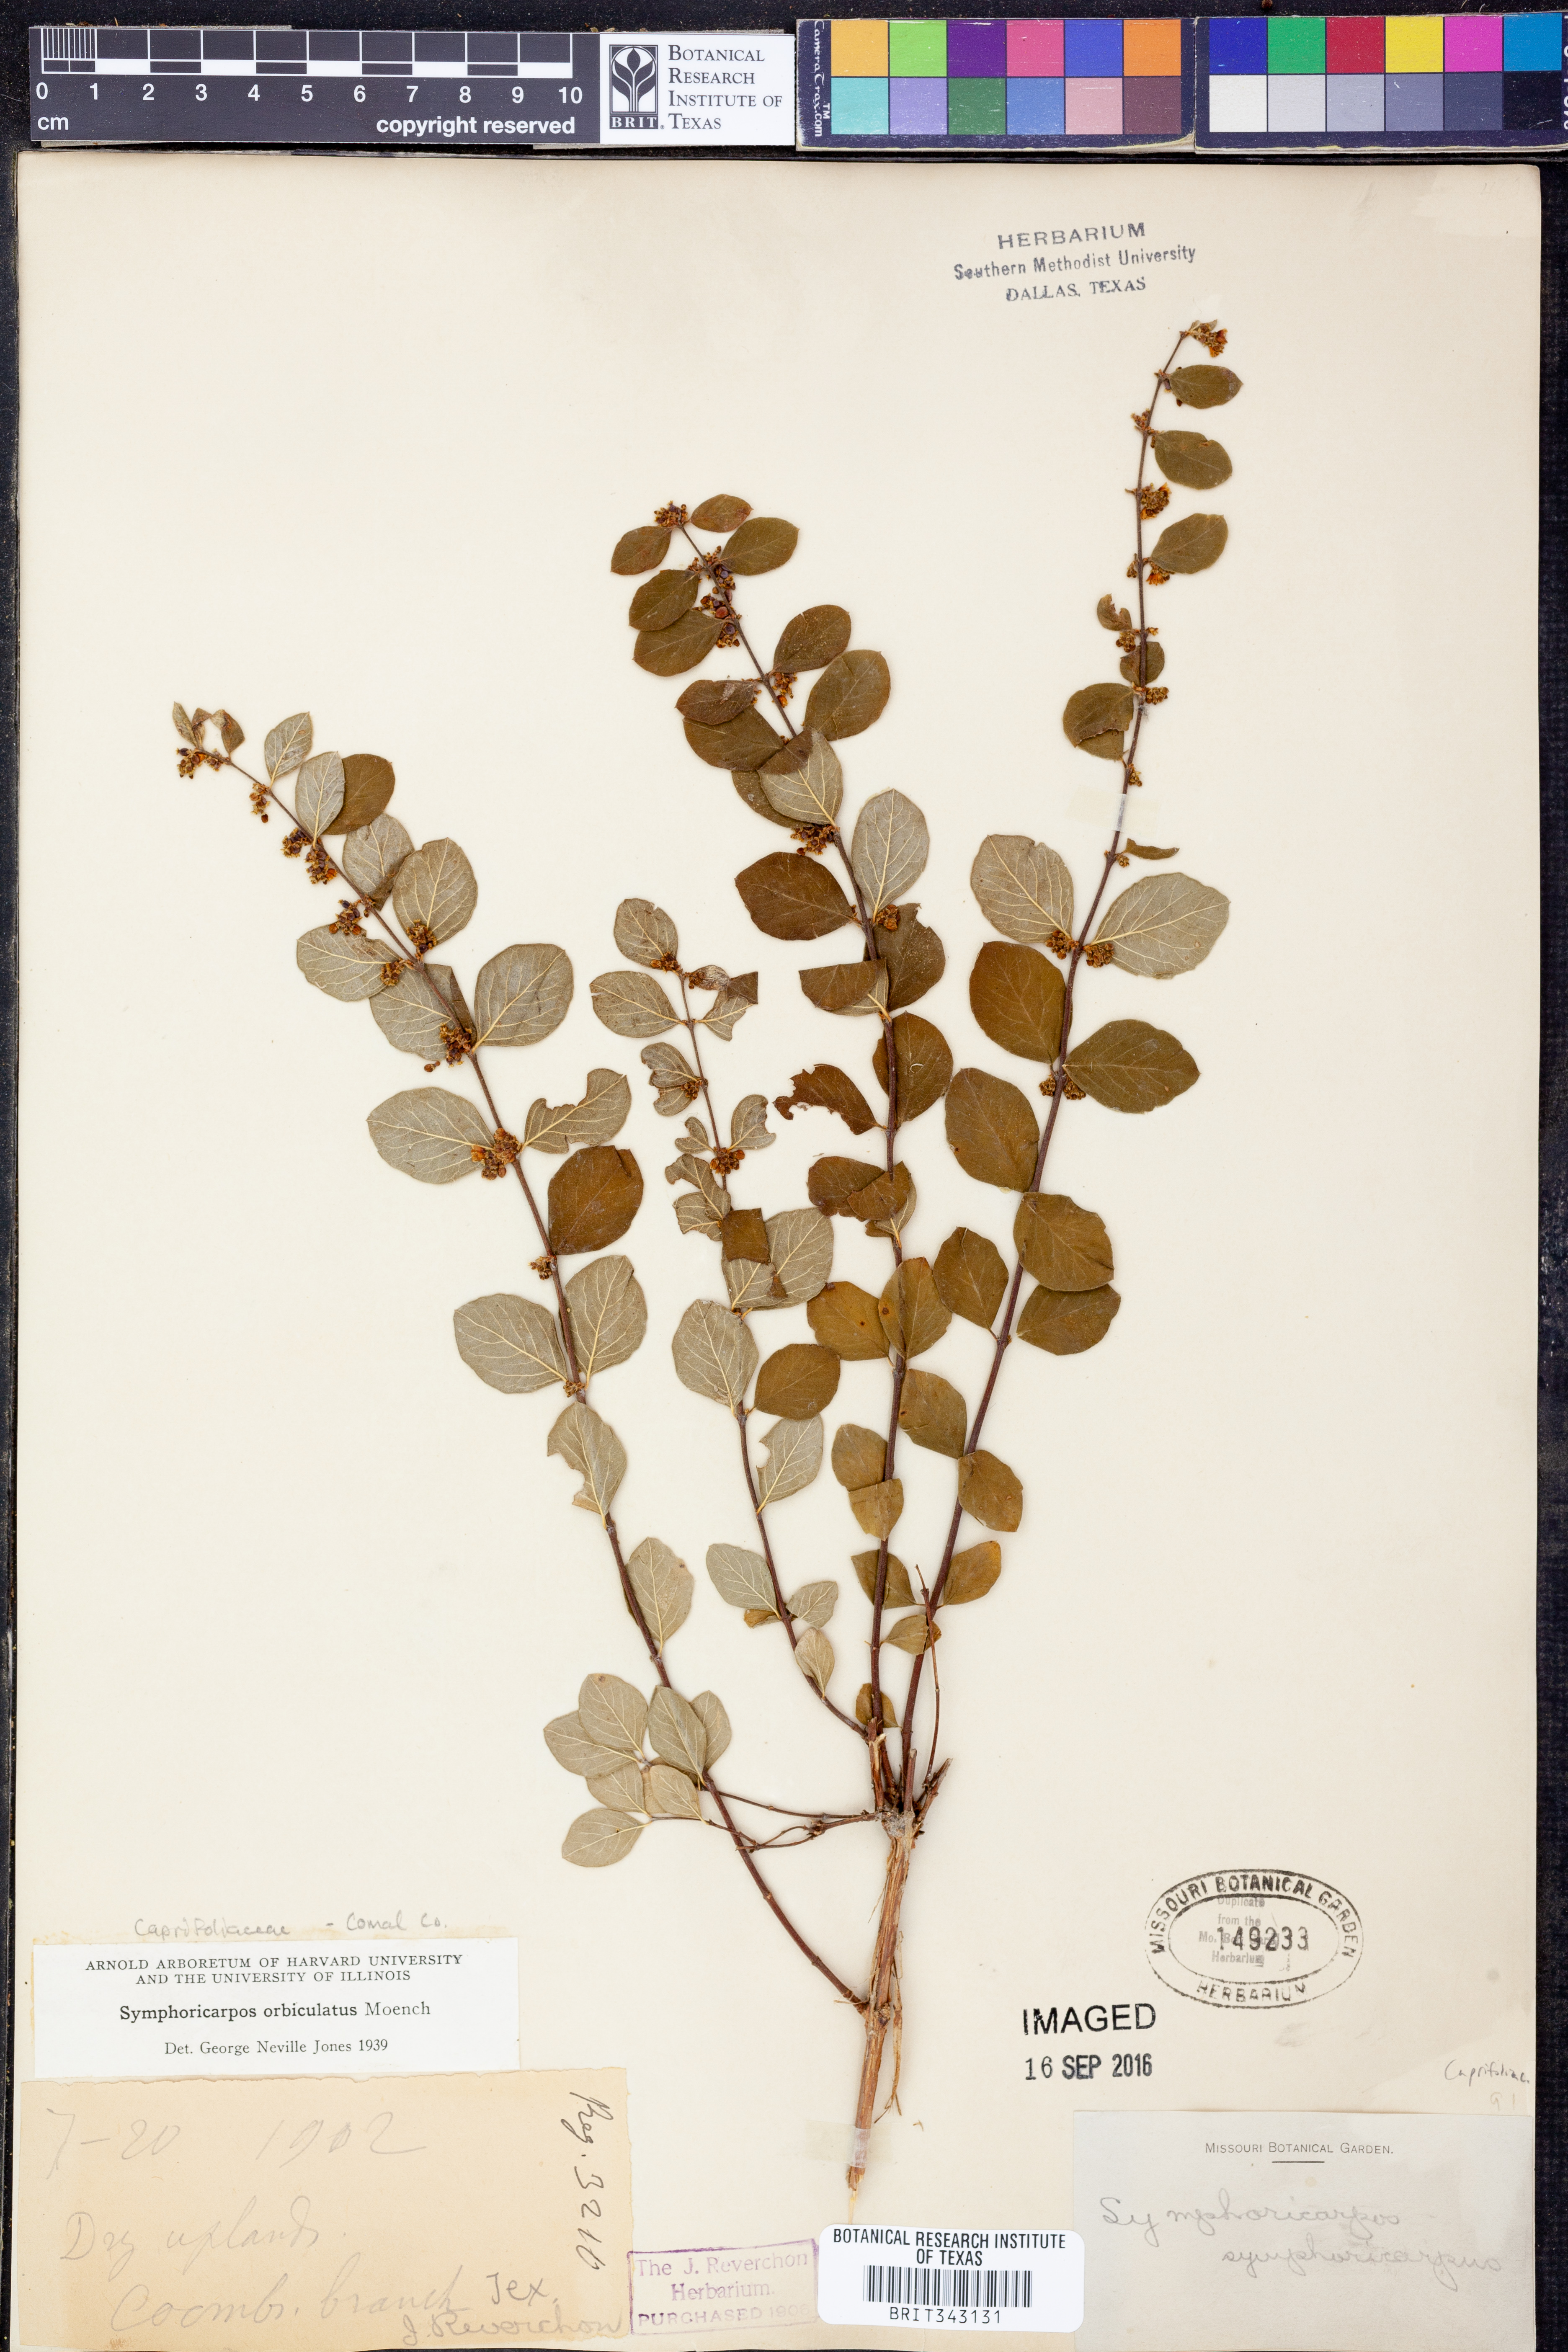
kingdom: Plantae
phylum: Tracheophyta
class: Magnoliopsida
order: Dipsacales
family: Caprifoliaceae
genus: Symphoricarpos
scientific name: Symphoricarpos orbiculatus
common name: Coralberry
